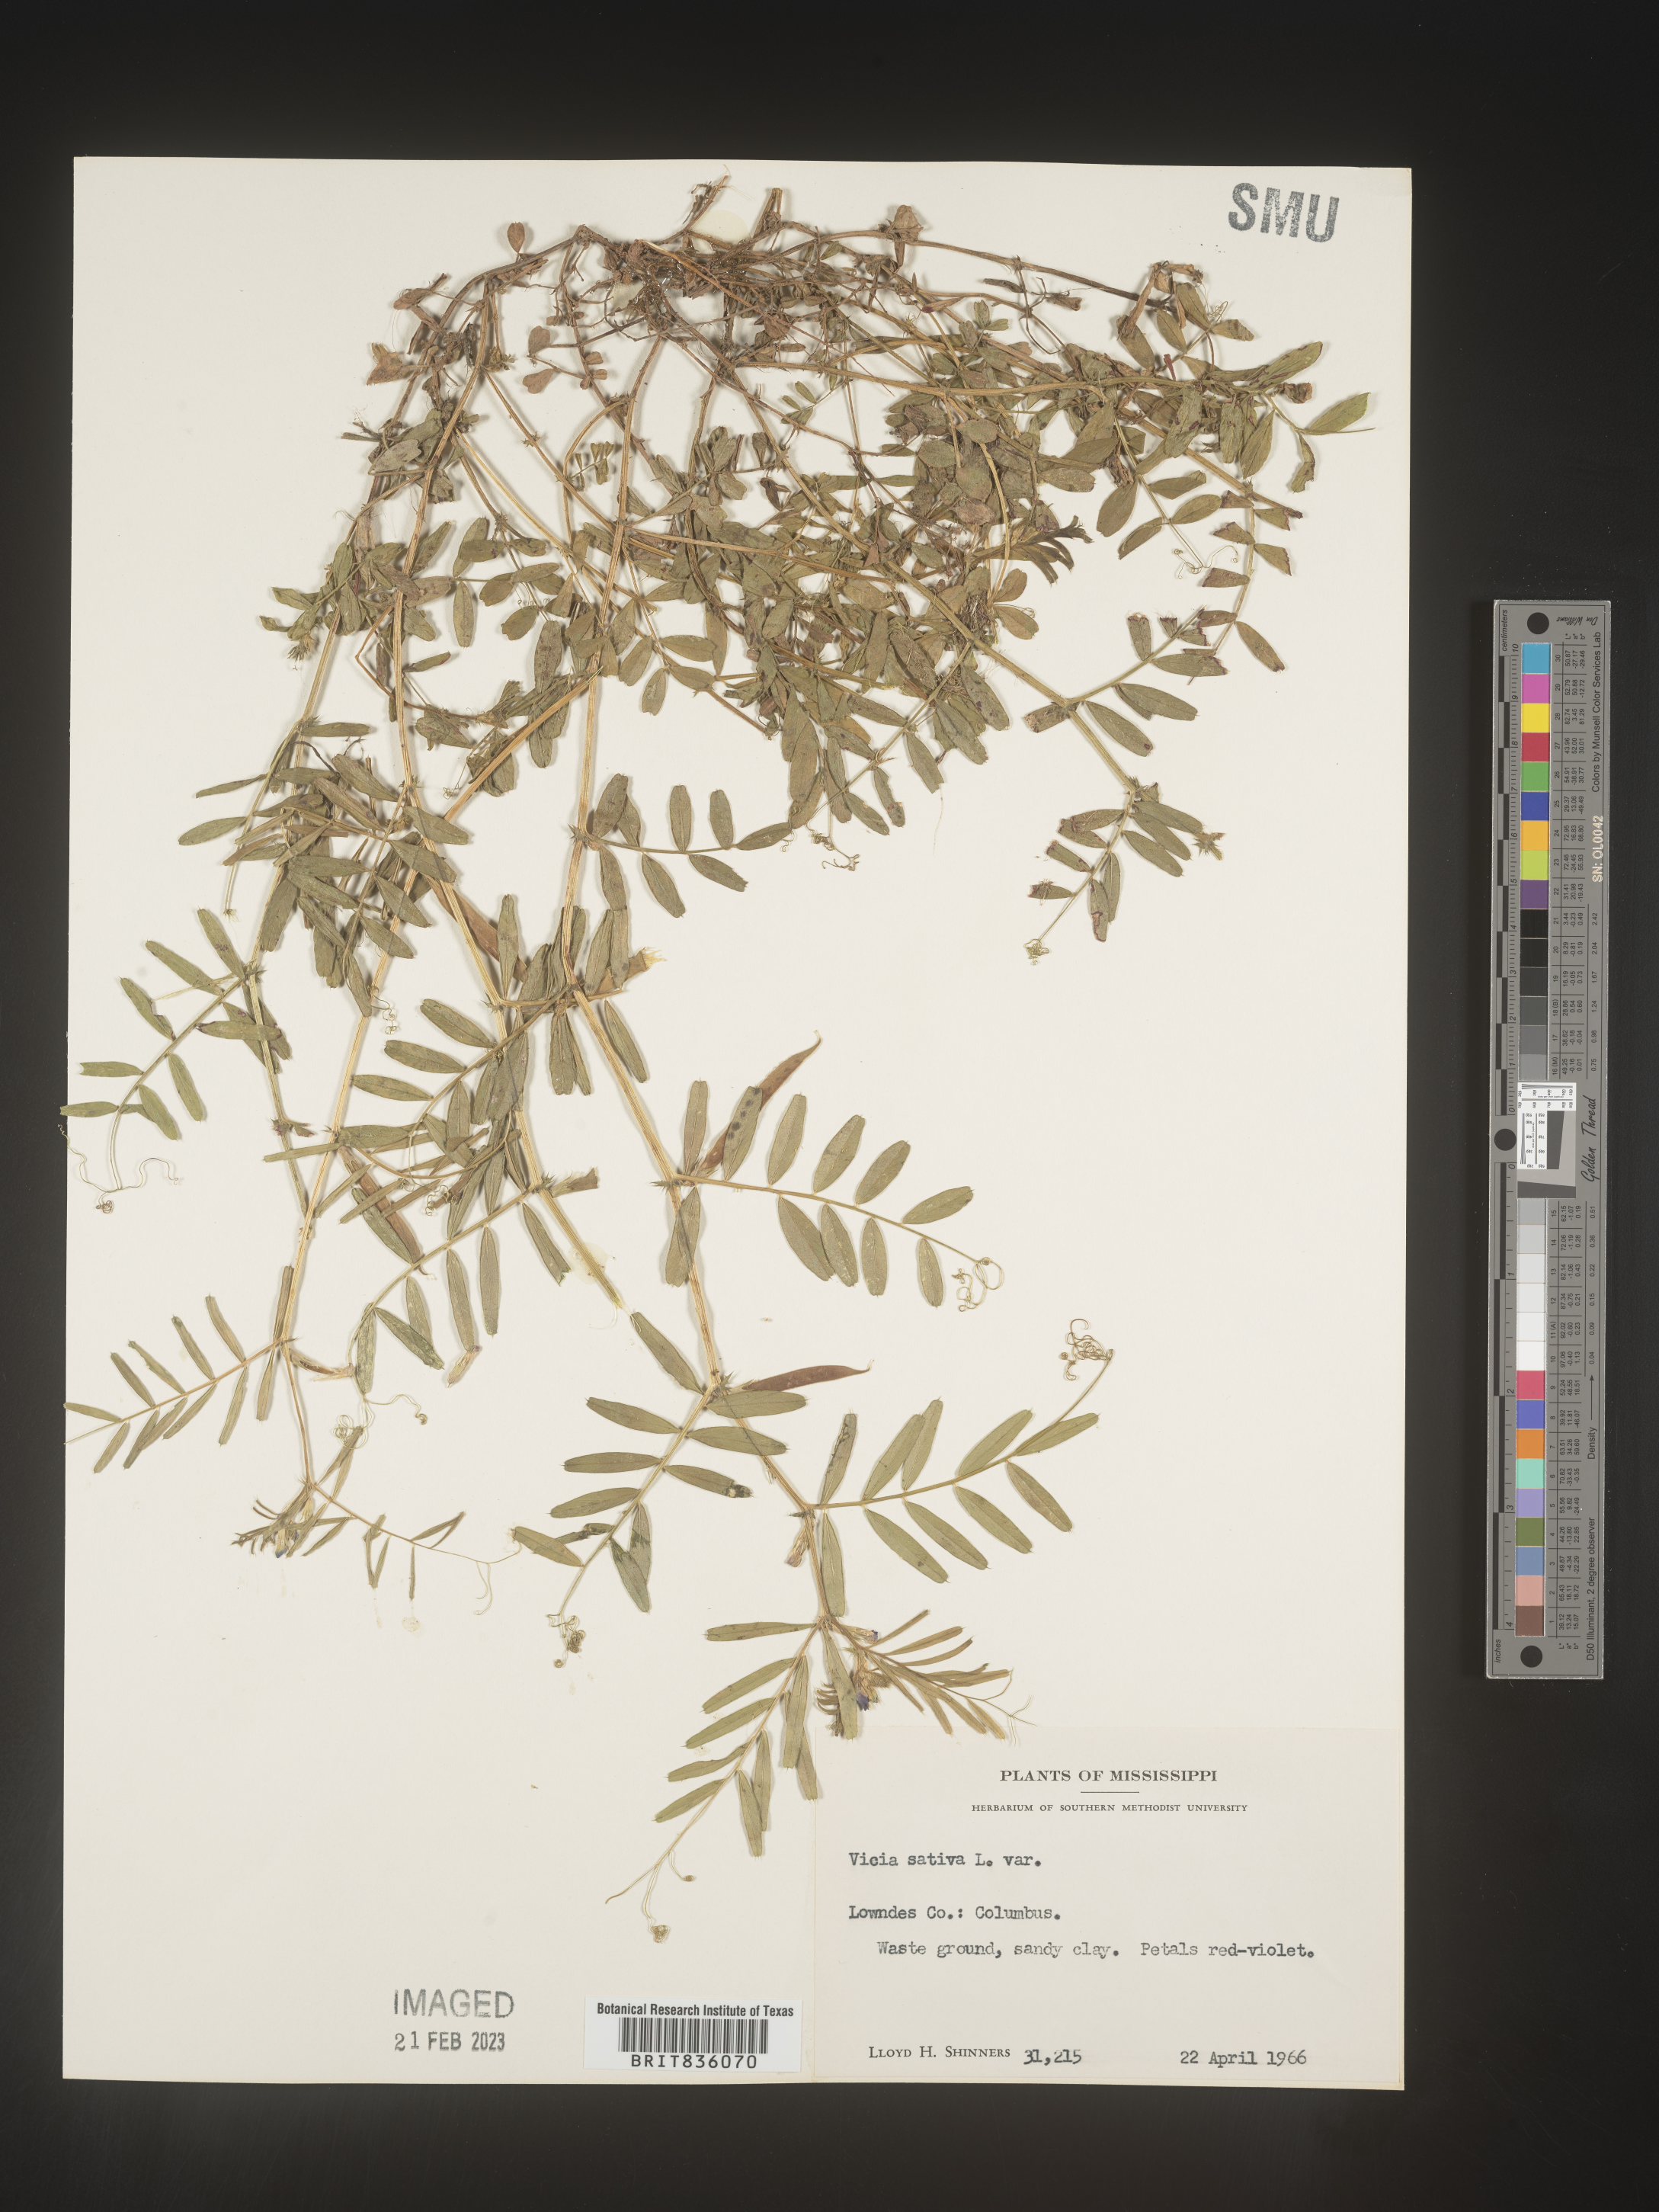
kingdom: Plantae
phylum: Tracheophyta
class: Magnoliopsida
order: Fabales
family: Fabaceae
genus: Vicia
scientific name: Vicia sativa
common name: Garden vetch
